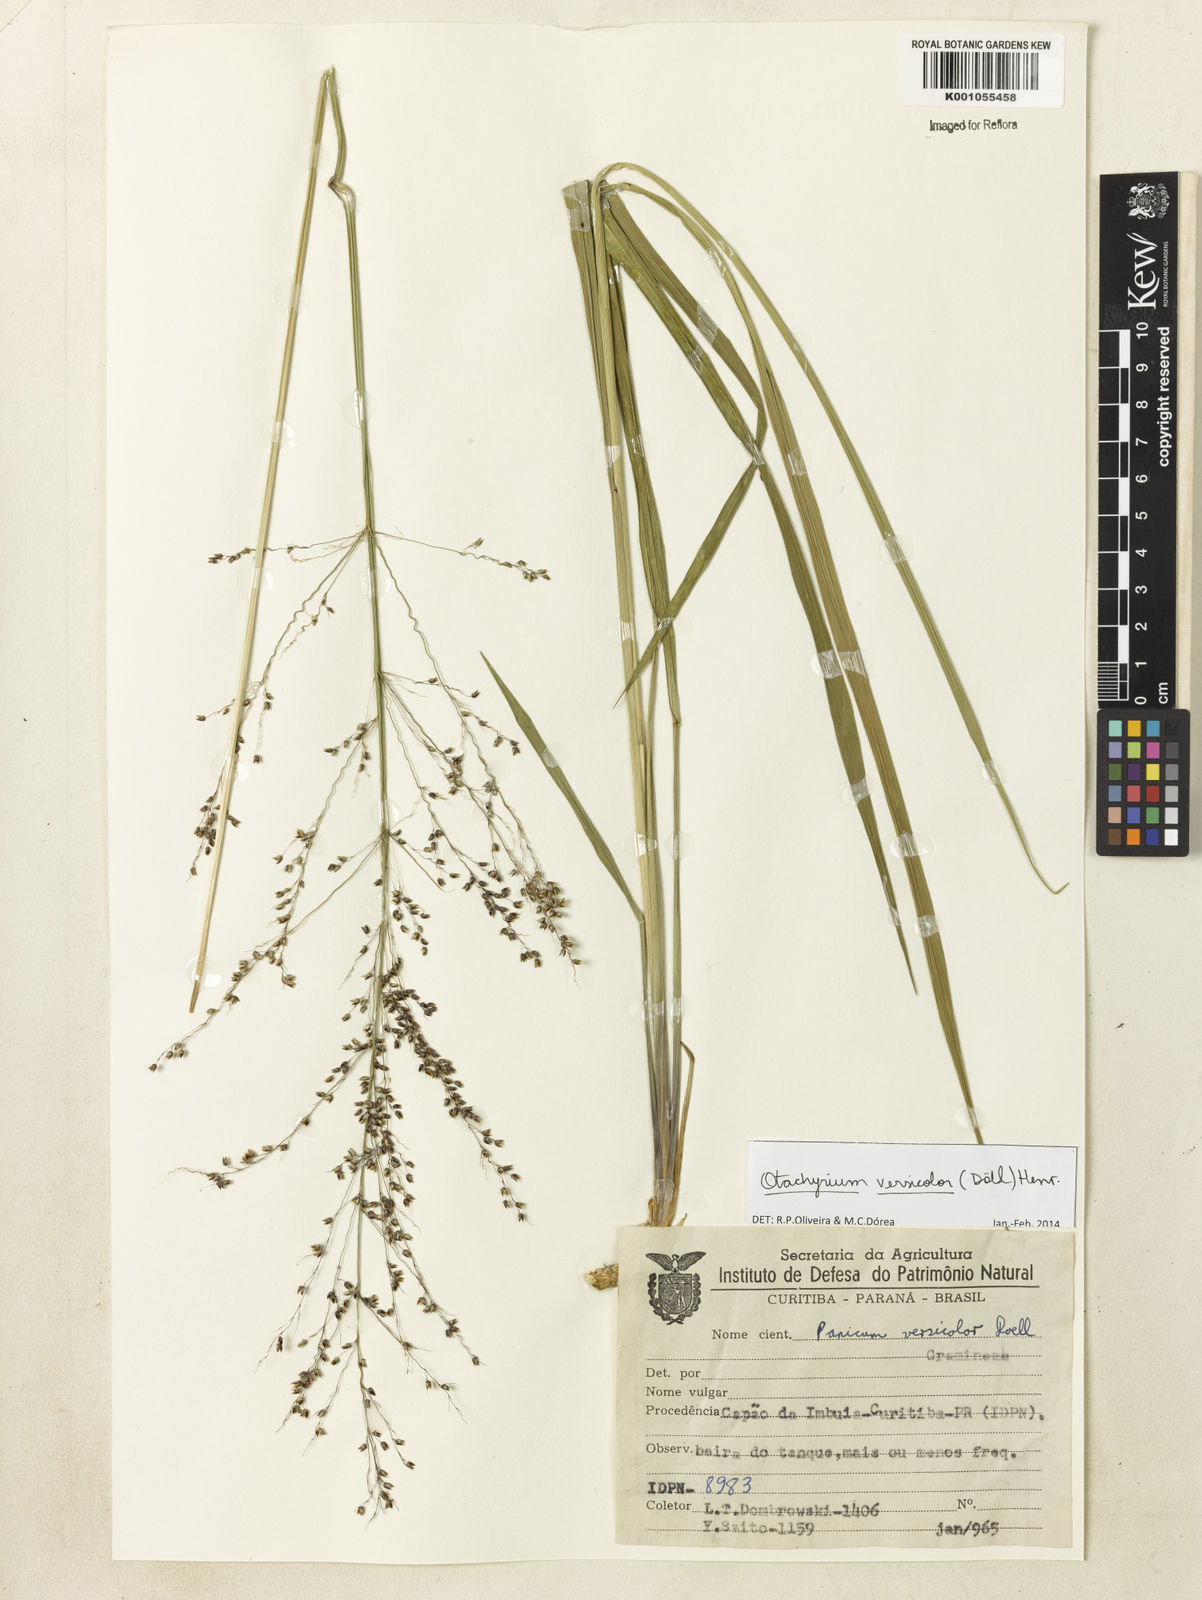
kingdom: Plantae
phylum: Tracheophyta
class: Liliopsida
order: Poales
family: Poaceae
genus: Otachyrium
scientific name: Otachyrium
